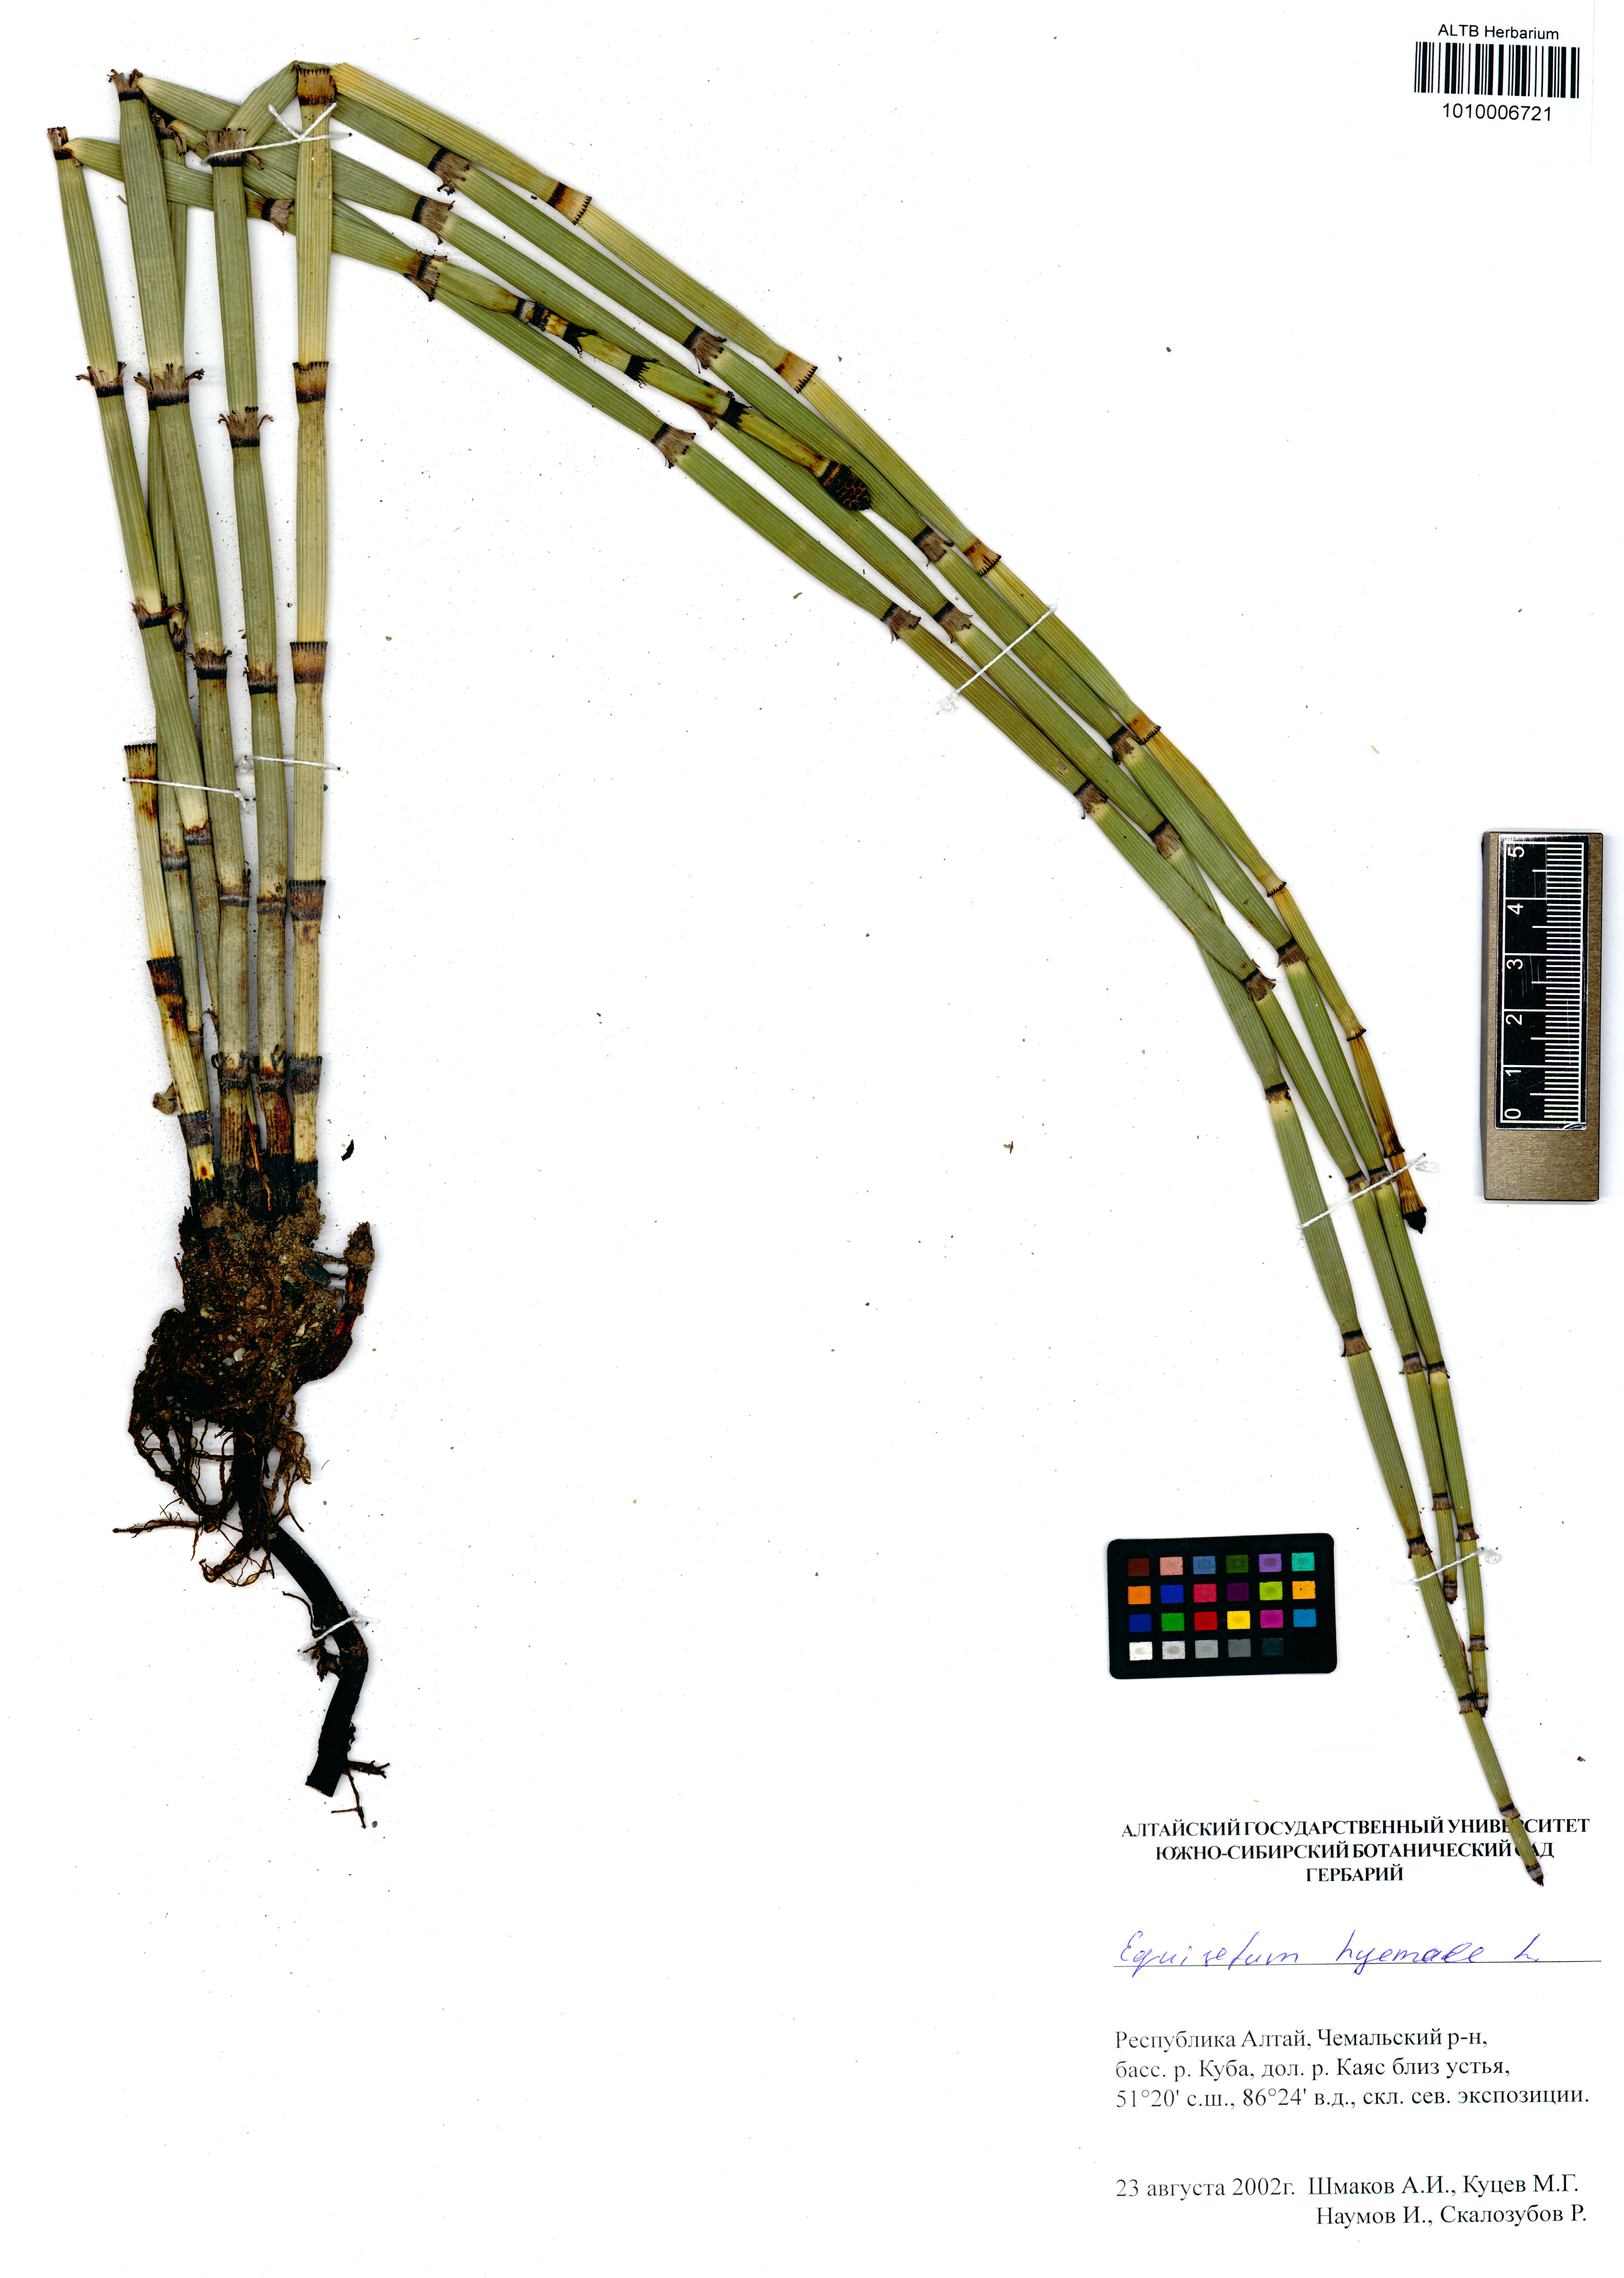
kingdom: Plantae
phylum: Tracheophyta
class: Polypodiopsida
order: Equisetales
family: Equisetaceae
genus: Equisetum
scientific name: Equisetum hyemale
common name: Rough horsetail
